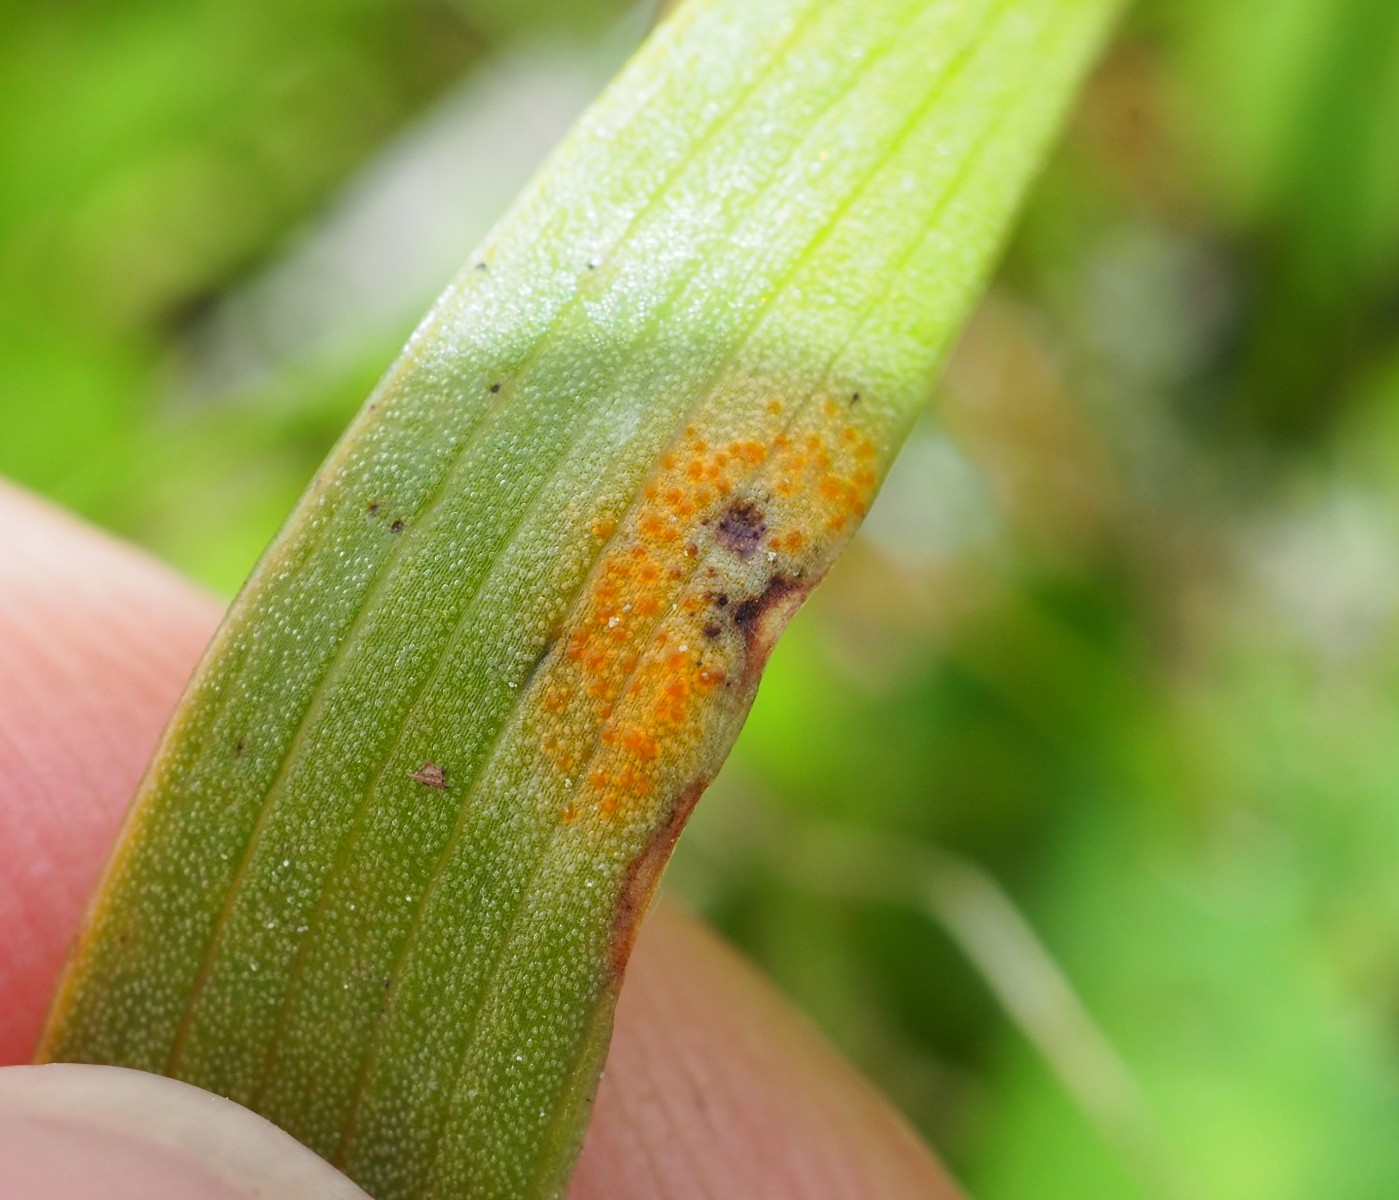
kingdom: Fungi
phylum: Basidiomycota
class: Pucciniomycetes
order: Pucciniales
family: Melampsoraceae
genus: Melampsora
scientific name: Melampsora epitea
